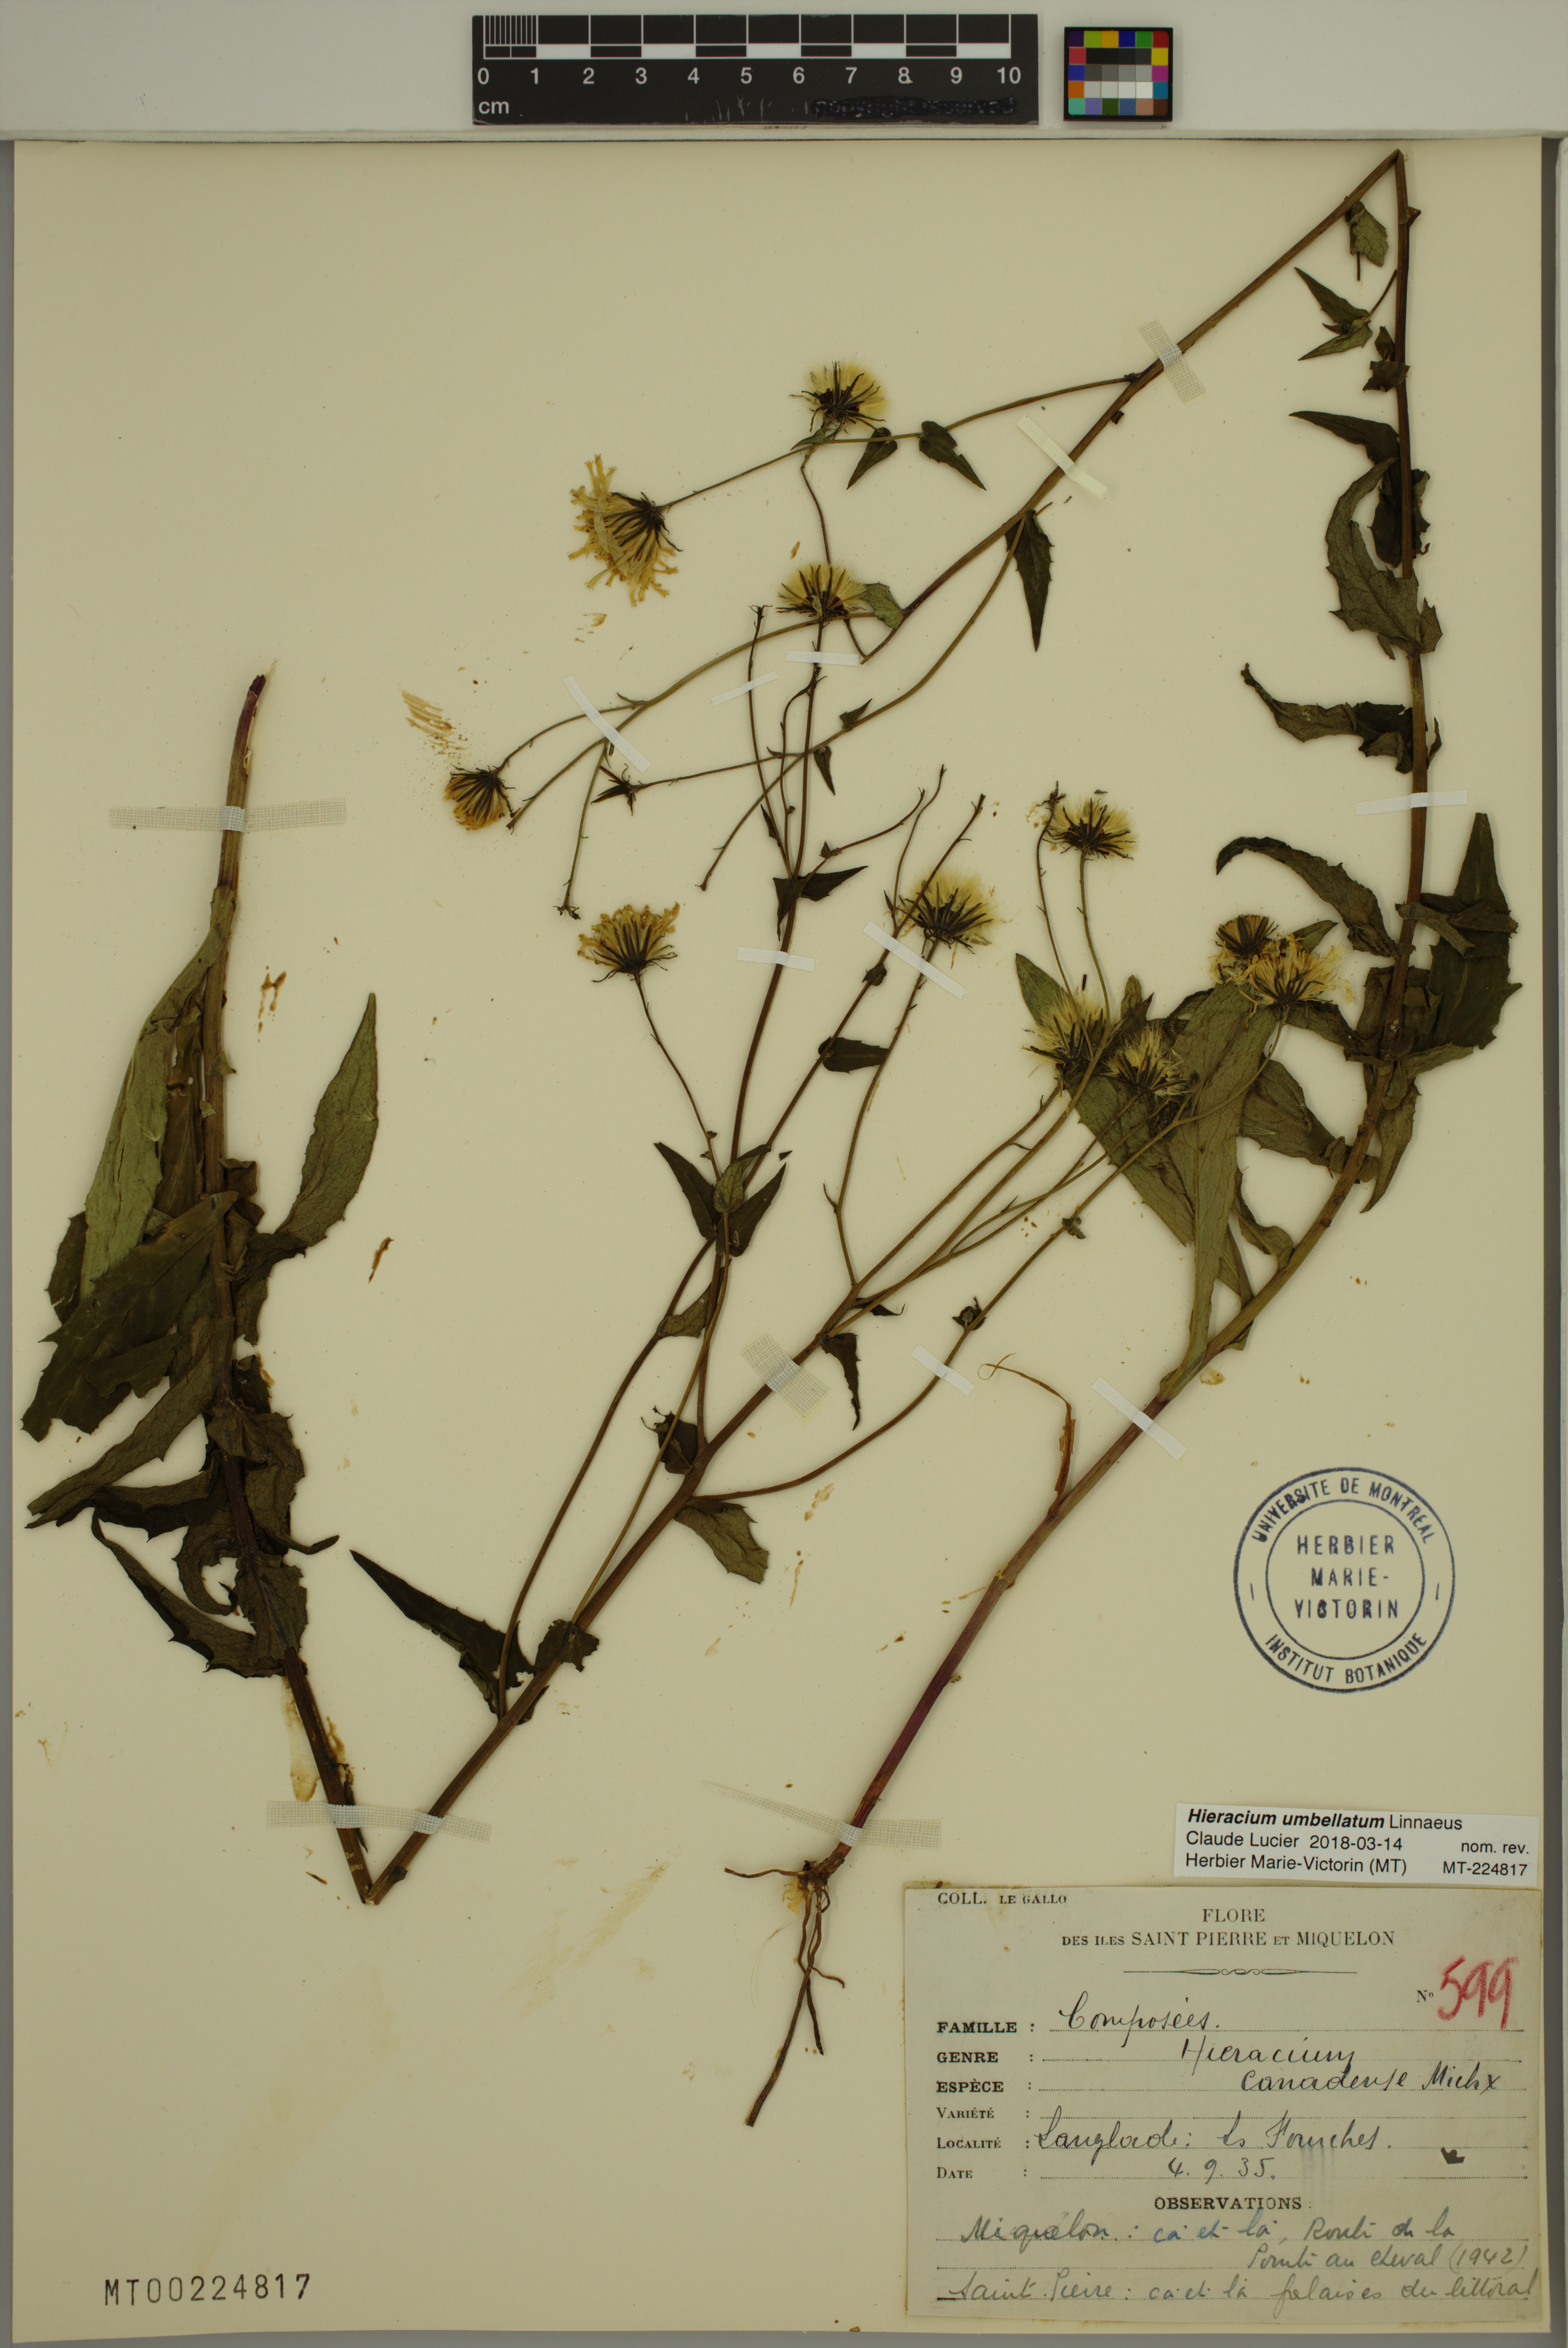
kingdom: Plantae
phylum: Tracheophyta
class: Magnoliopsida
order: Asterales
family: Asteraceae
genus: Hieracium
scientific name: Hieracium umbellatum
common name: Northern hawkweed
